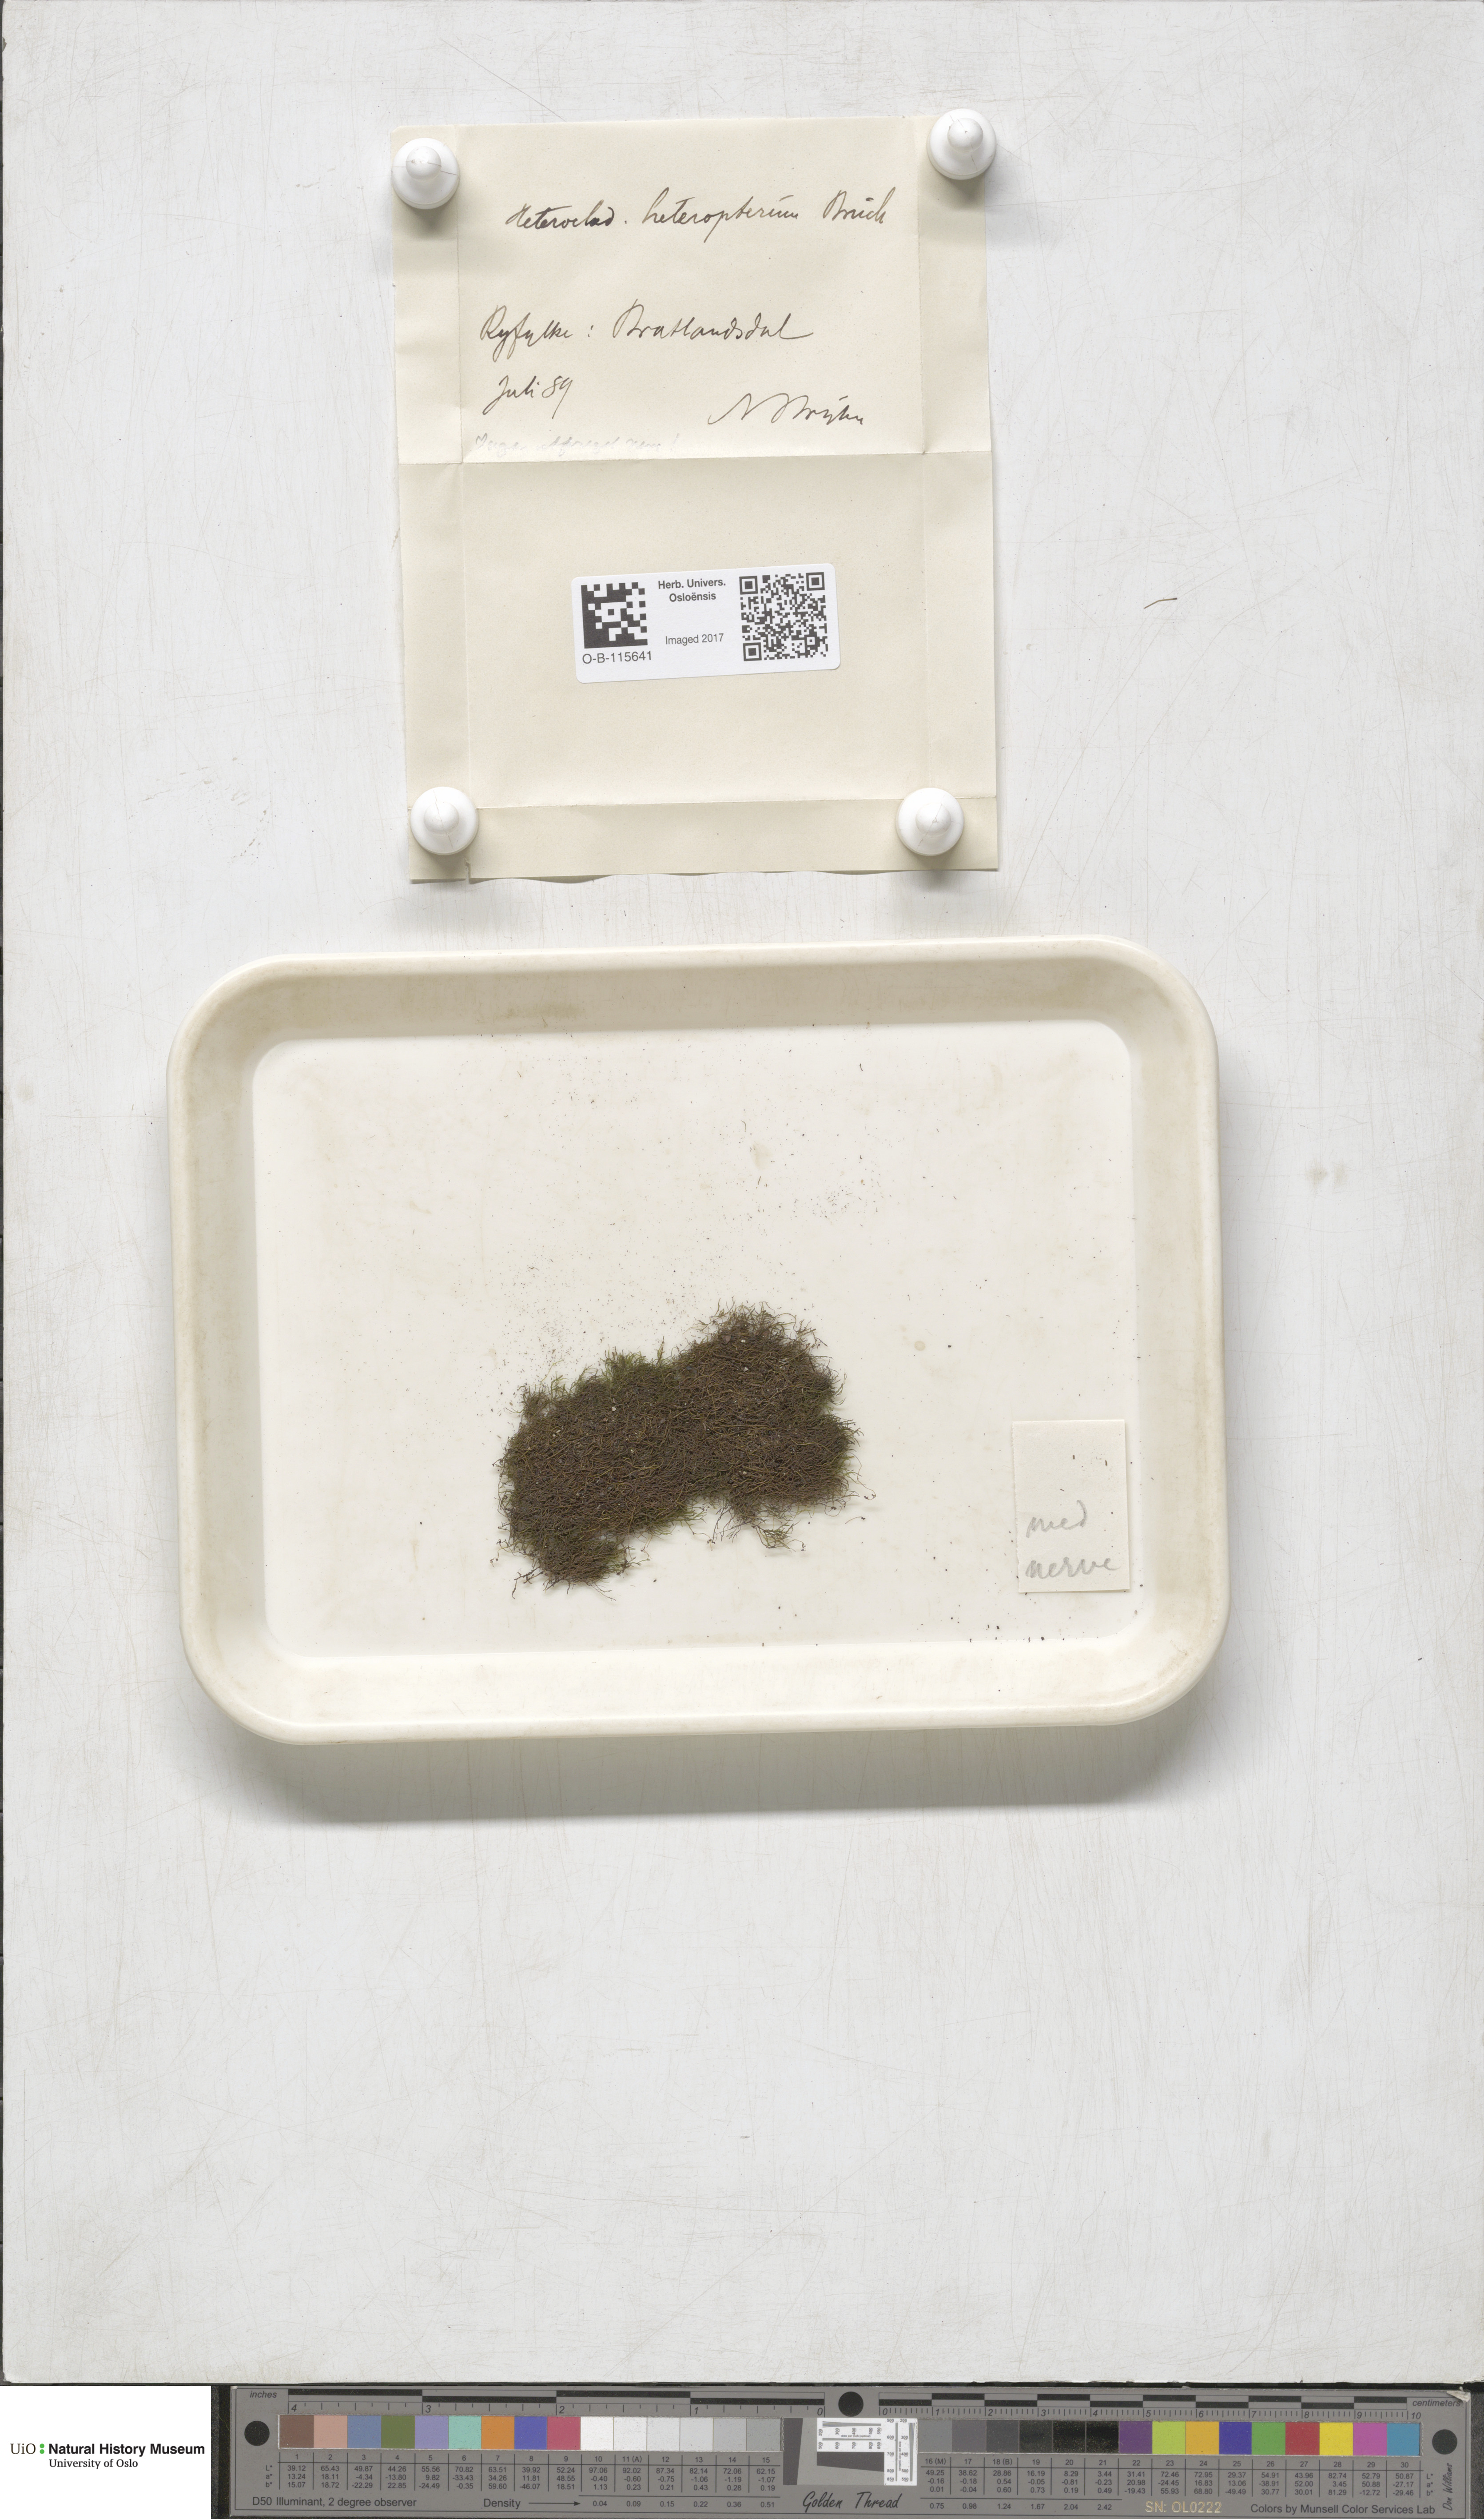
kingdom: Plantae
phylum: Bryophyta
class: Bryopsida
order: Hypnales
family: Lembophyllaceae
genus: Heterocladium
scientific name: Heterocladium heteropterum
